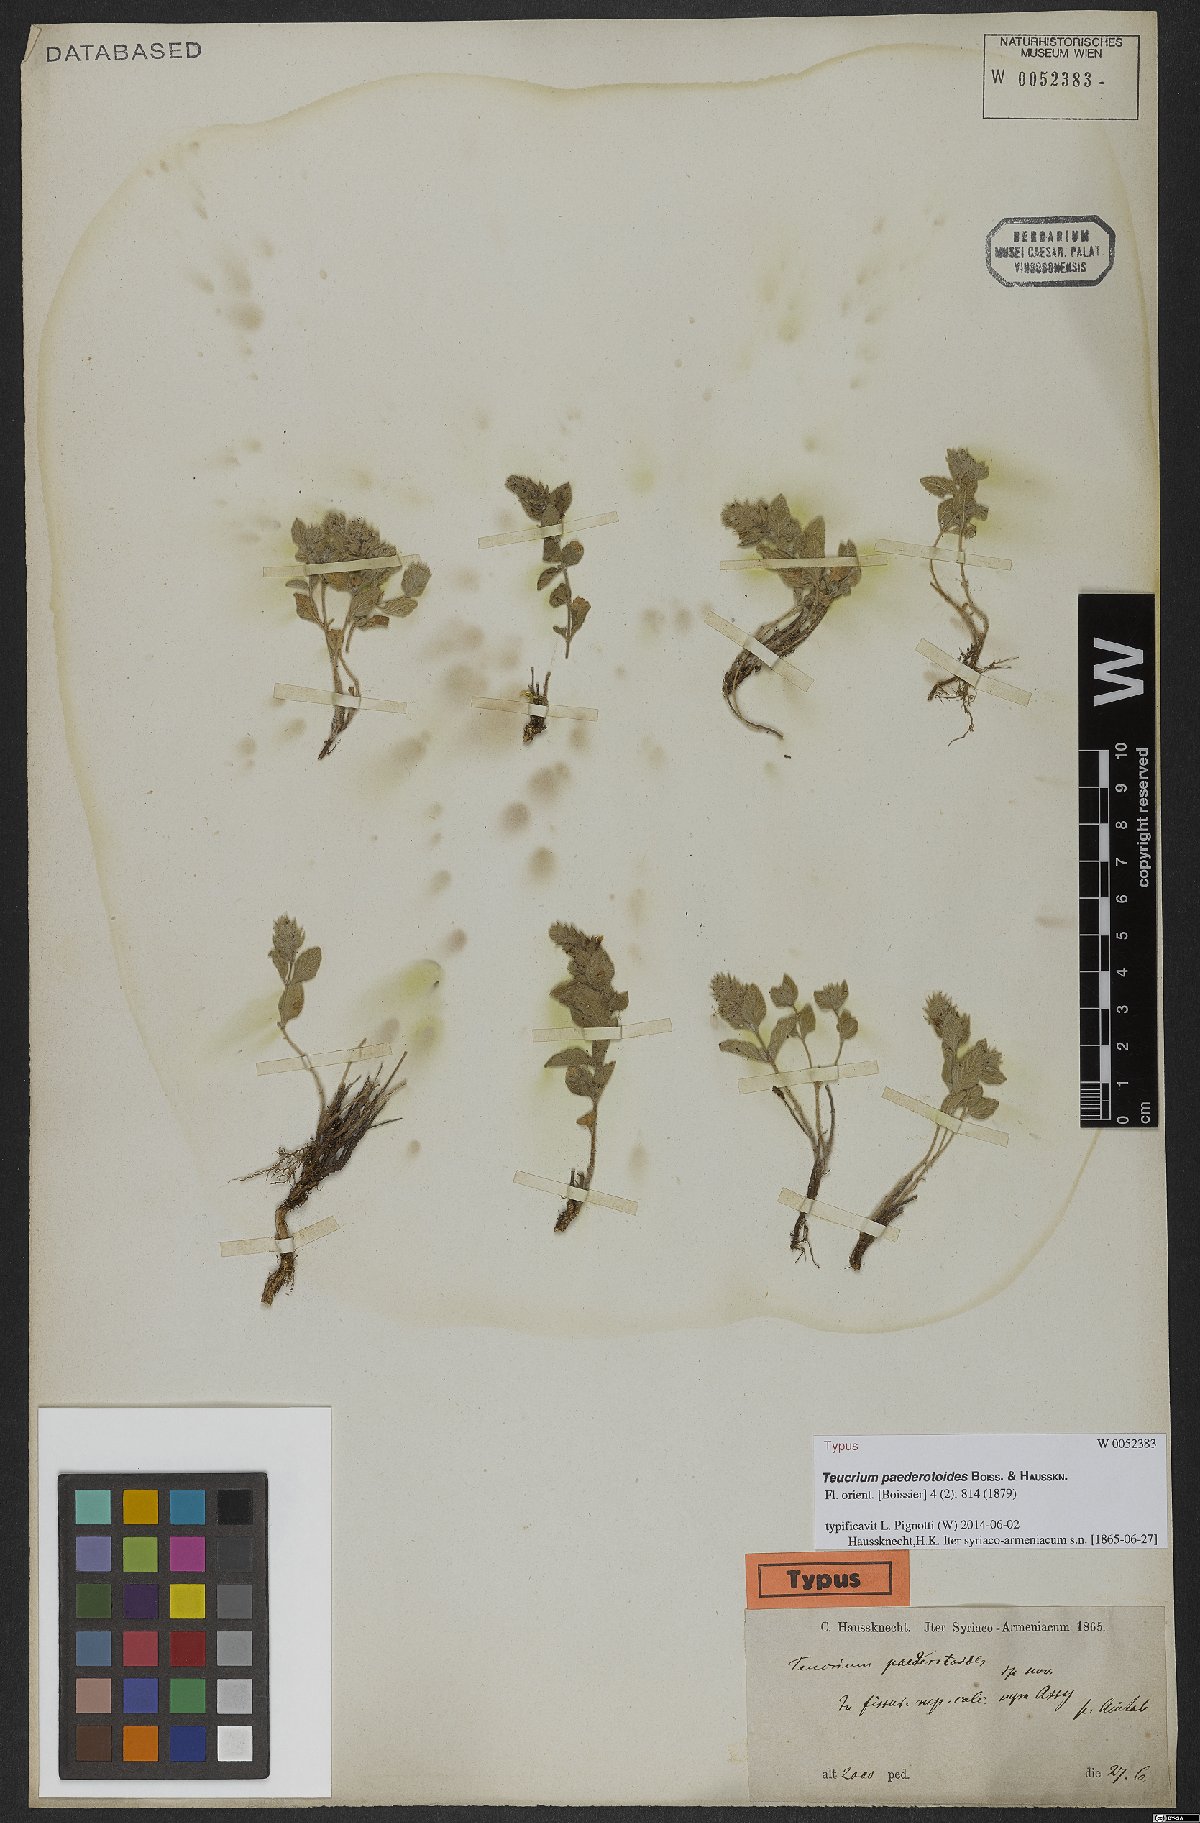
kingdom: Plantae
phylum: Tracheophyta
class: Magnoliopsida
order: Lamiales
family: Lamiaceae
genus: Teucrium
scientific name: Teucrium paederotoides
